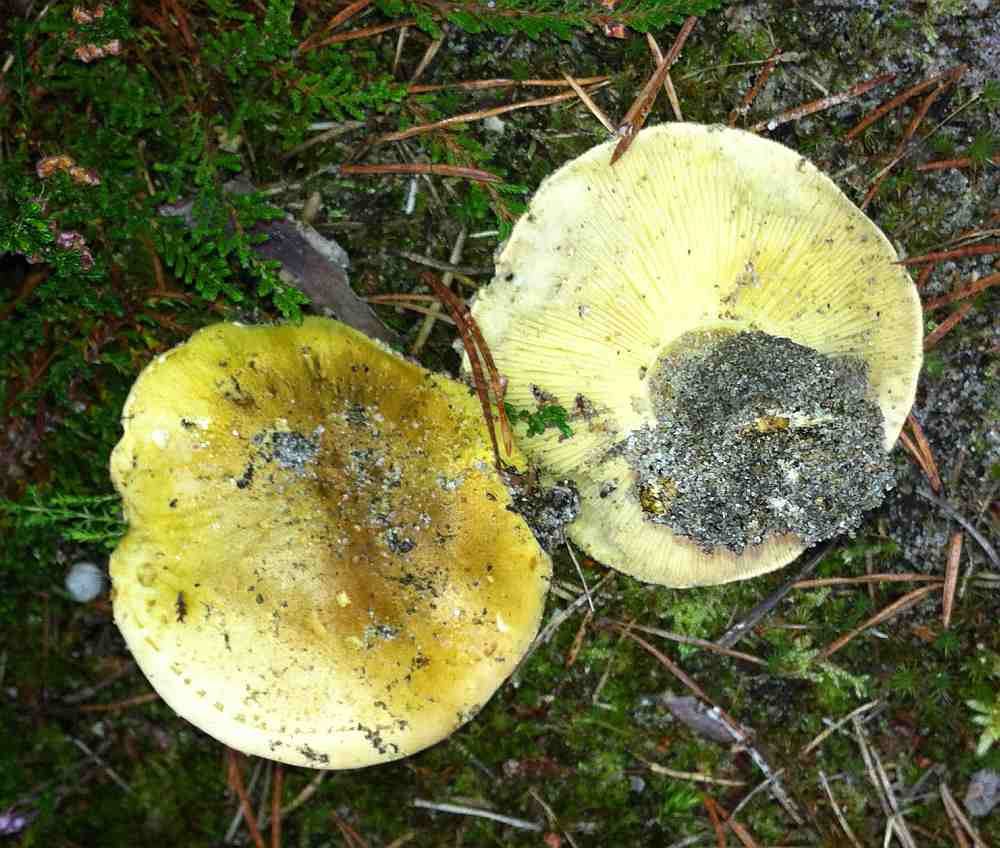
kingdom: Fungi
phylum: Basidiomycota
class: Agaricomycetes
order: Agaricales
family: Tricholomataceae
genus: Tricholoma
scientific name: Tricholoma equestre
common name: ægte ridderhat
